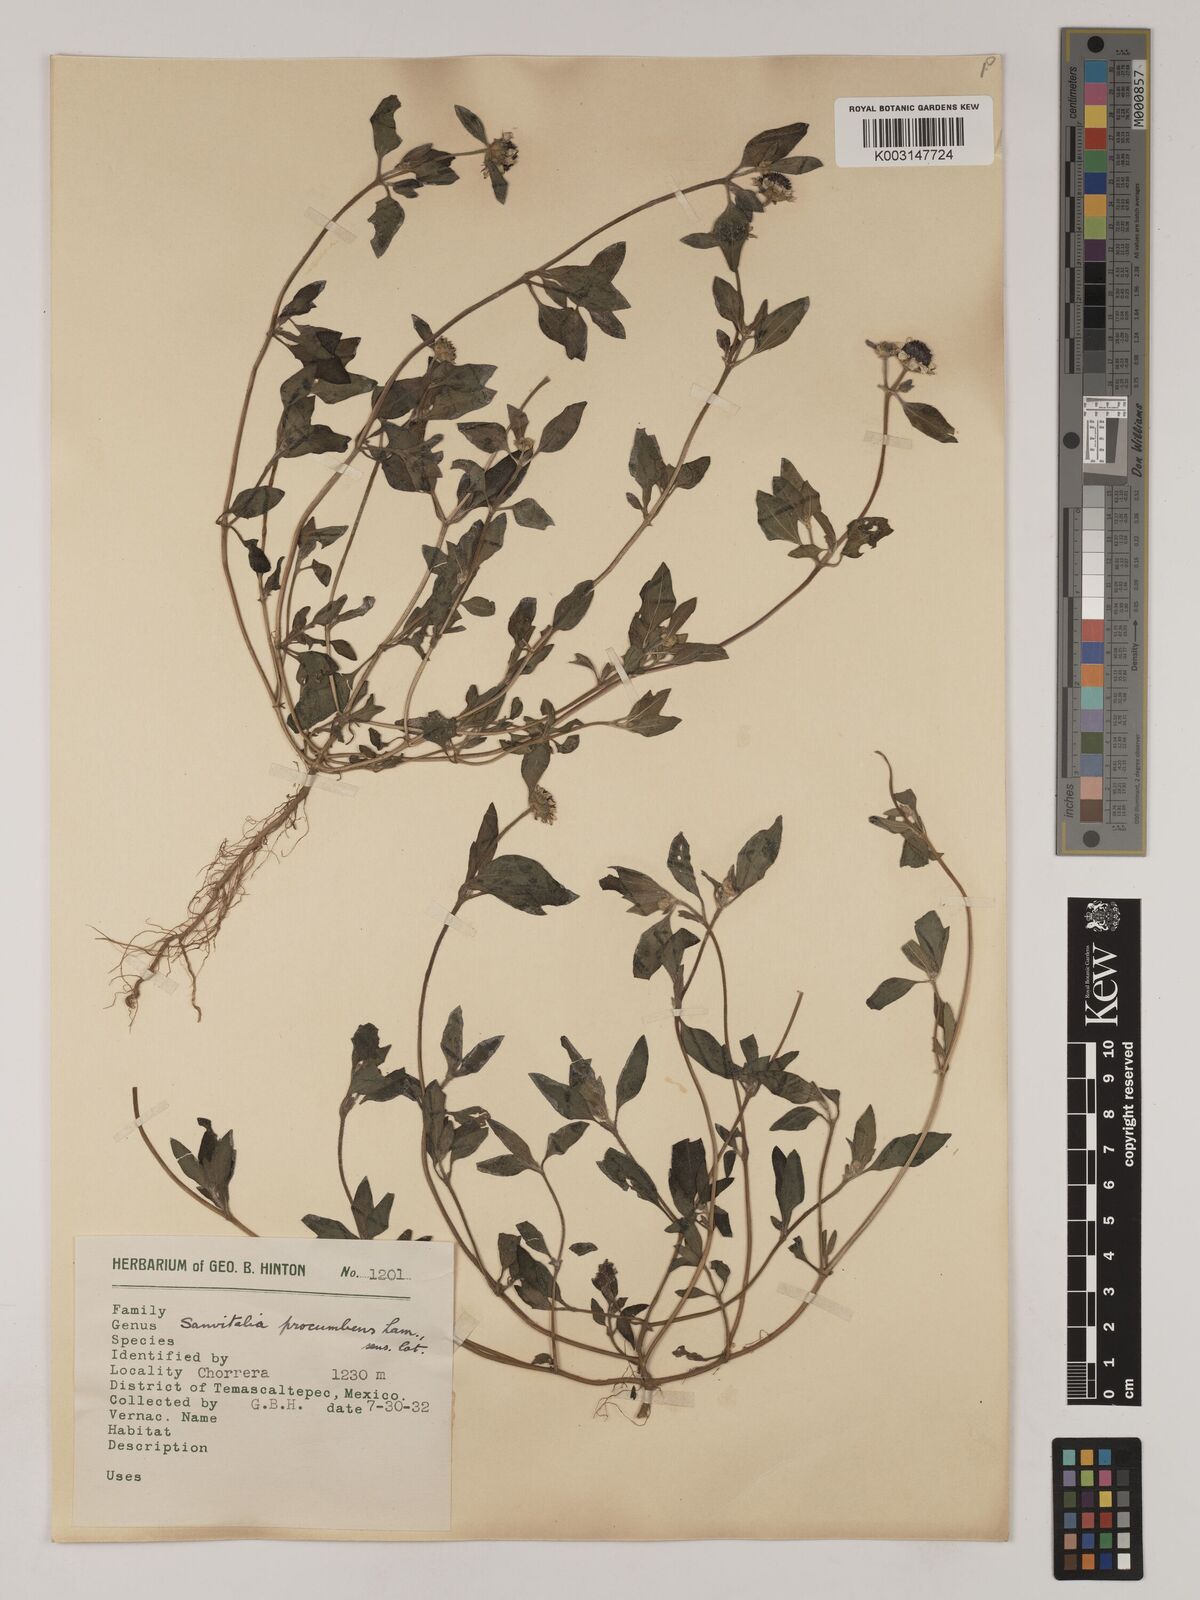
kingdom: Plantae
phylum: Tracheophyta
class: Magnoliopsida
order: Asterales
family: Asteraceae
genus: Sanvitalia
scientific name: Sanvitalia procumbens
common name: Mexican creeping zinnia
